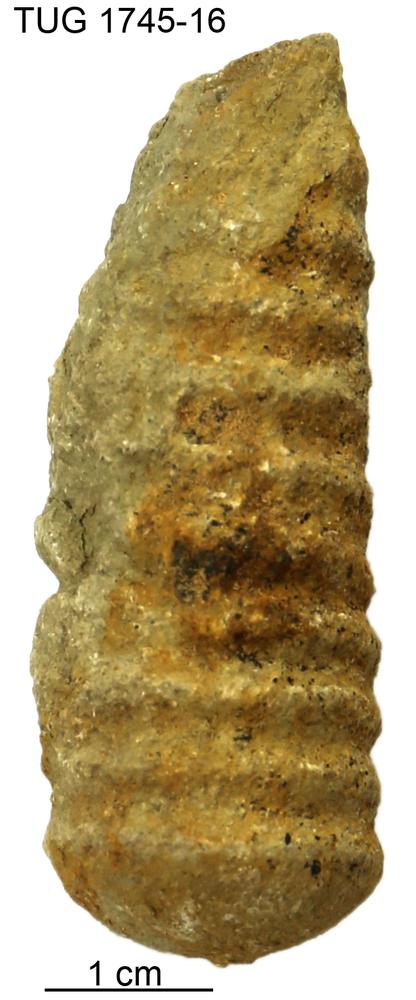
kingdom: Animalia
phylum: Mollusca
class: Cephalopoda
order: Nautilida
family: Nautilidae
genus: Dawsonoceras
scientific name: Dawsonoceras
